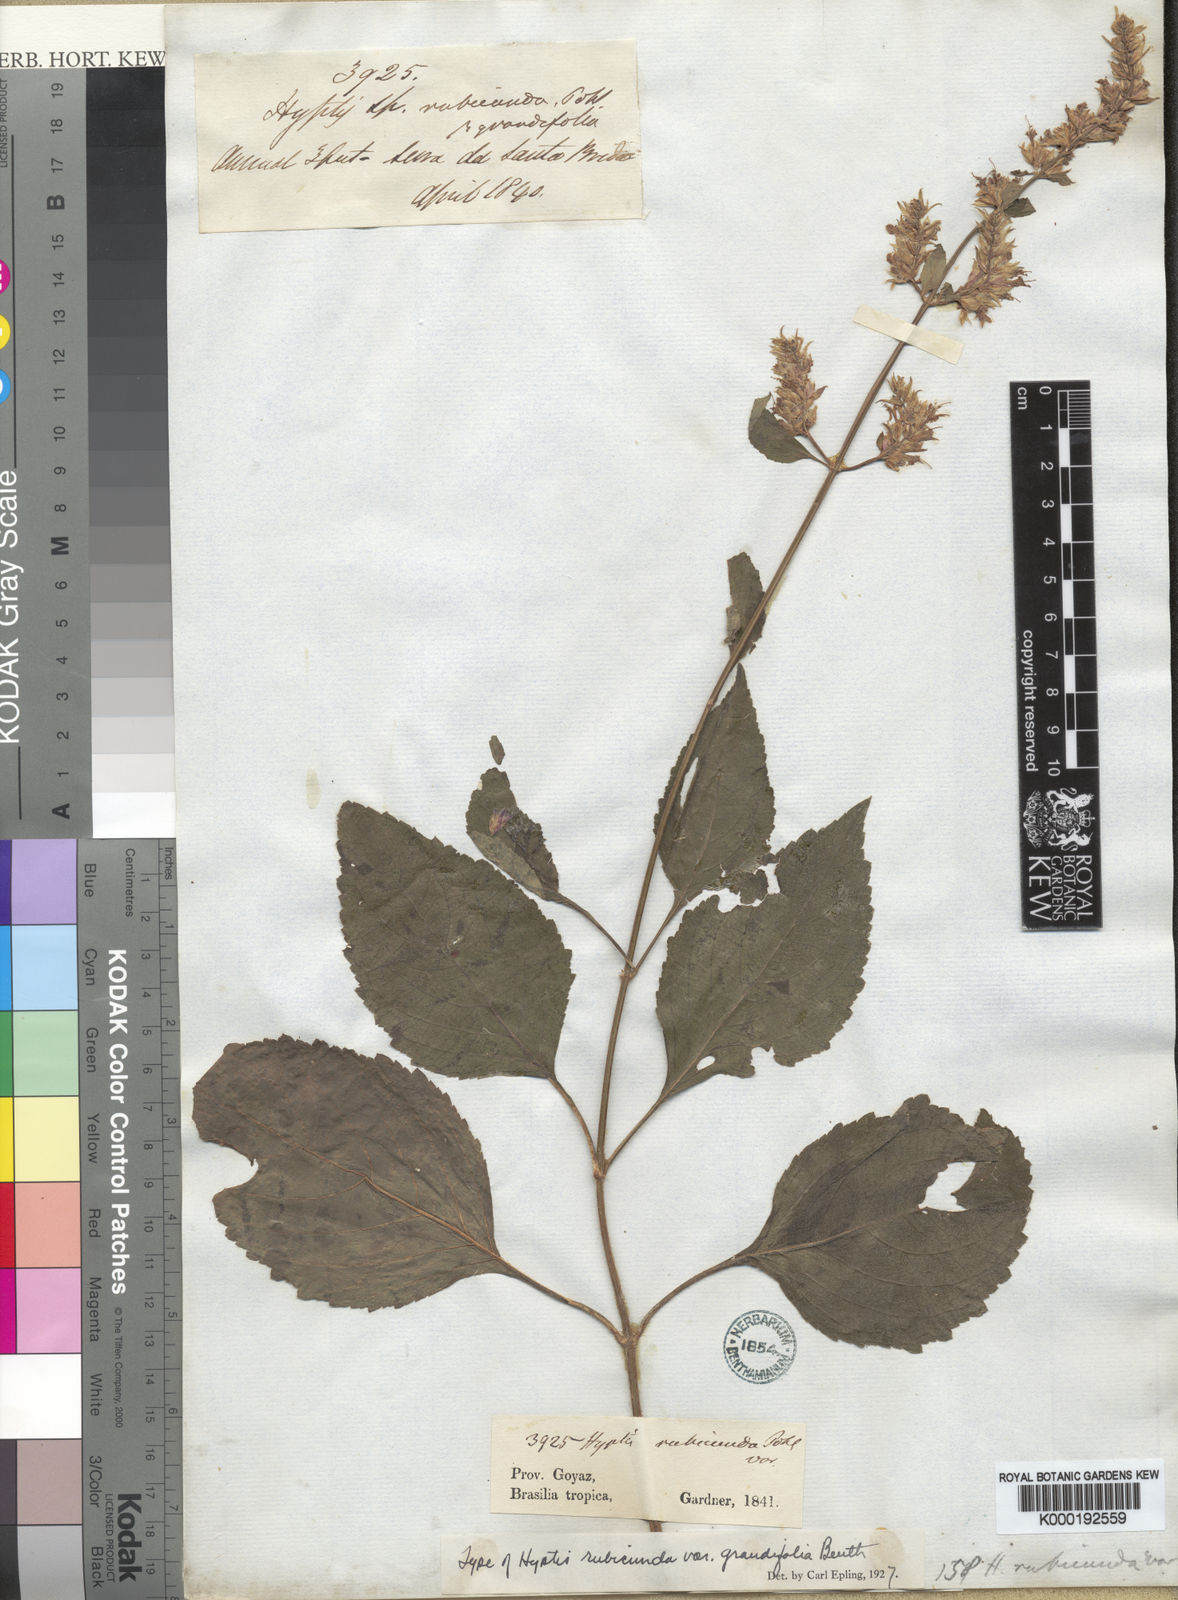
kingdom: Plantae
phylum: Tracheophyta
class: Magnoliopsida
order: Lamiales
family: Lamiaceae
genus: Cantinoa
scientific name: Cantinoa rubicunda
